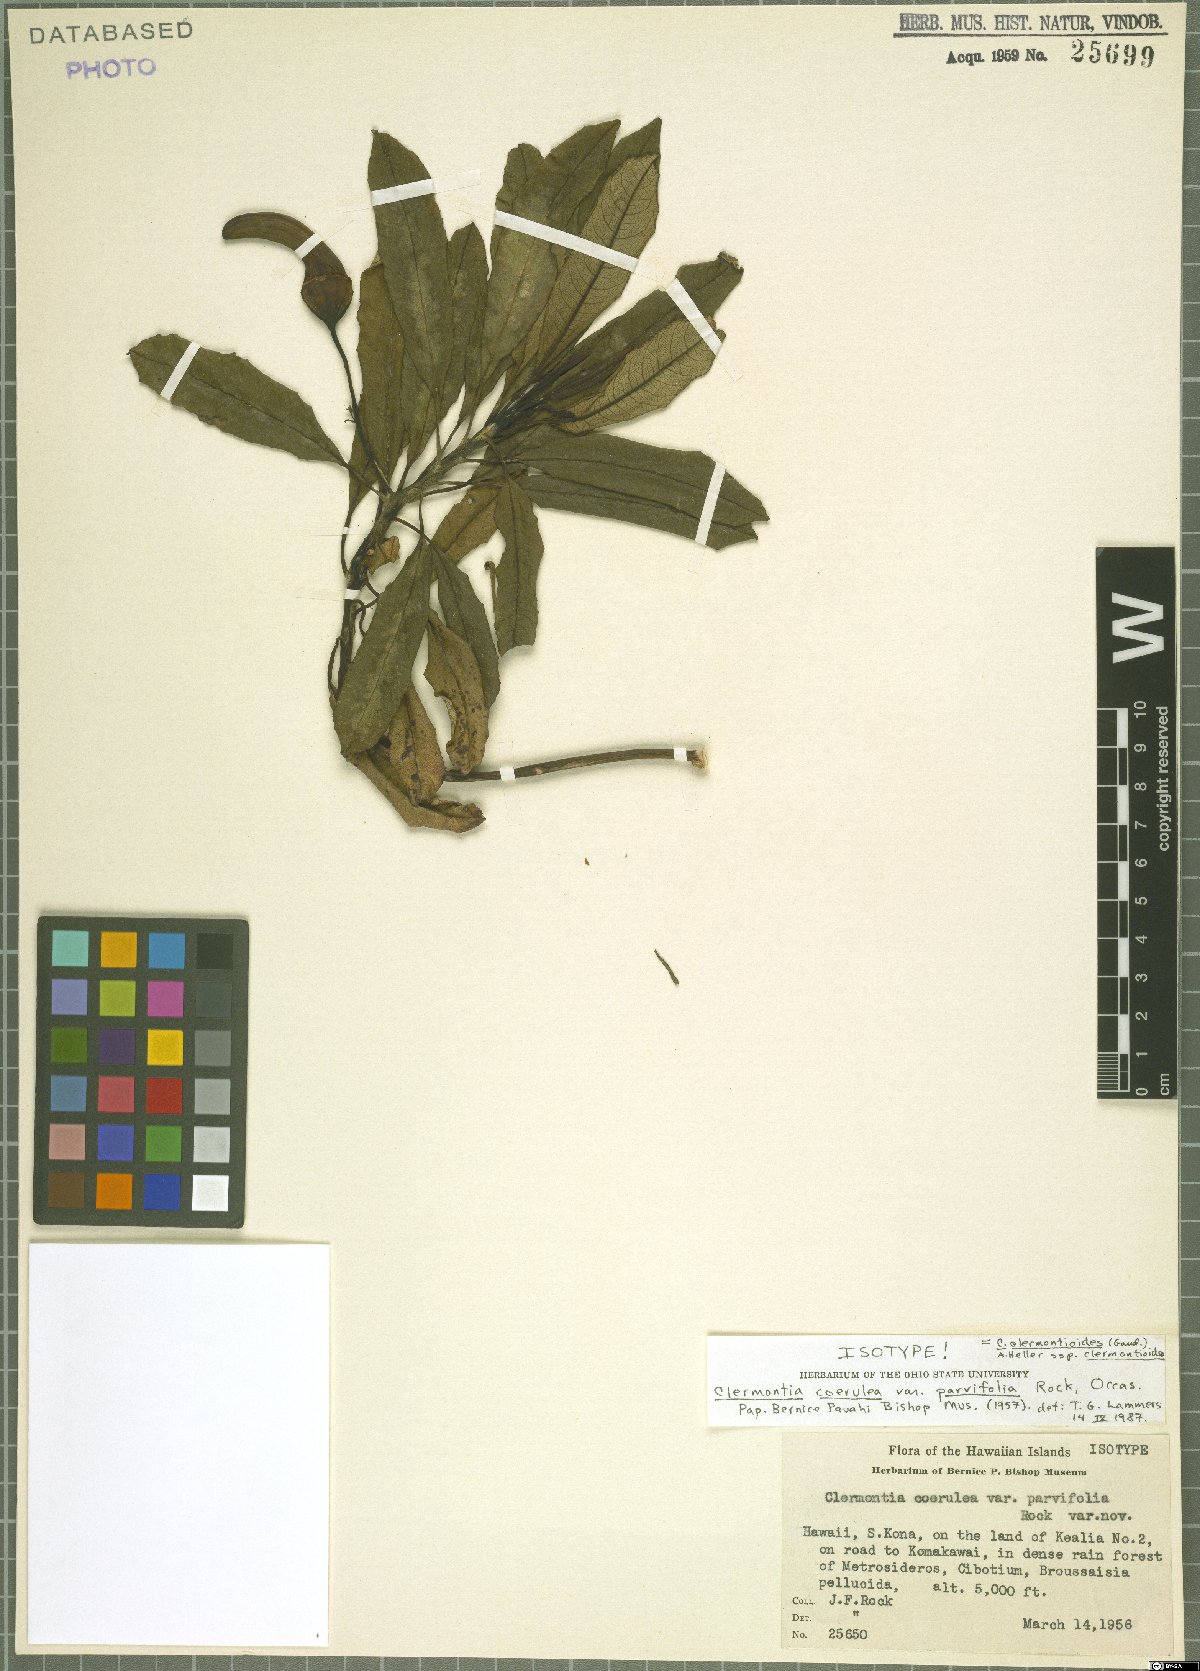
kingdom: Plantae
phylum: Tracheophyta
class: Magnoliopsida
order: Asterales
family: Campanulaceae
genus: Clermontia
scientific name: Clermontia clermontioides
